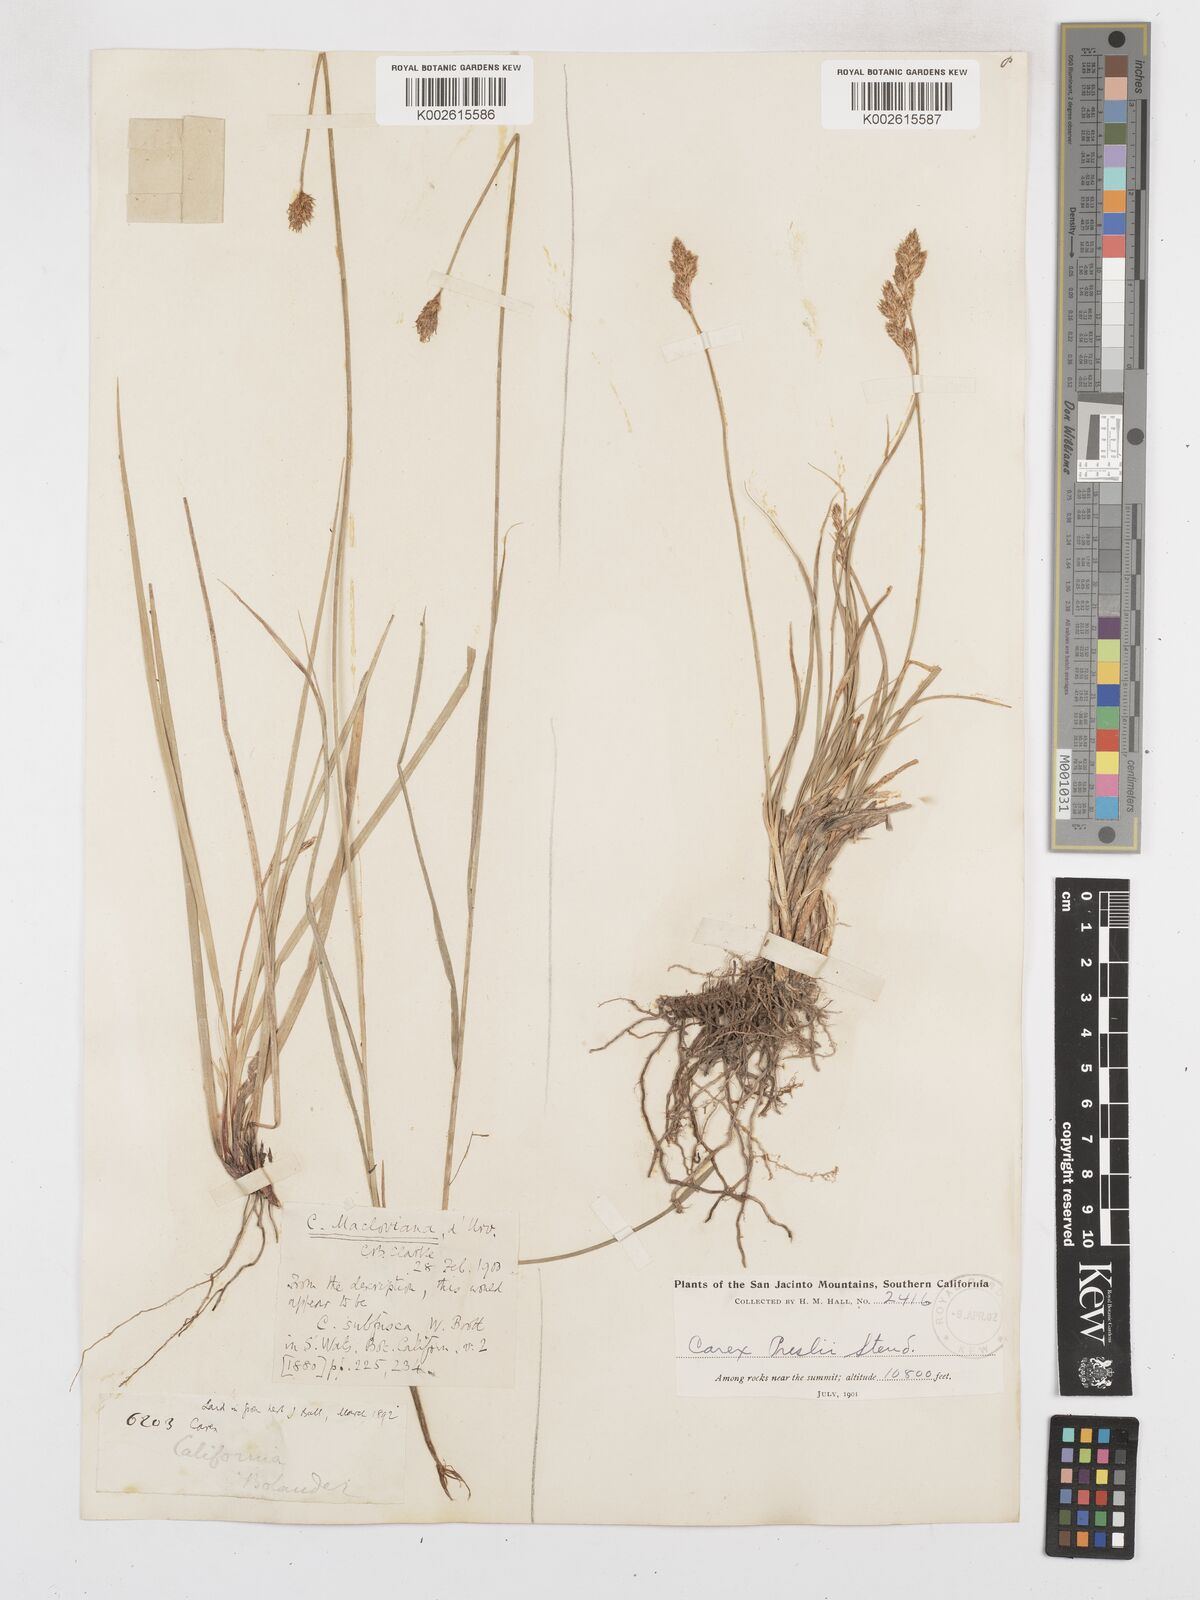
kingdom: Plantae
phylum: Tracheophyta
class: Liliopsida
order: Poales
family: Cyperaceae
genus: Carex
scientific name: Carex macloviana
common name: Falkland island sedge
